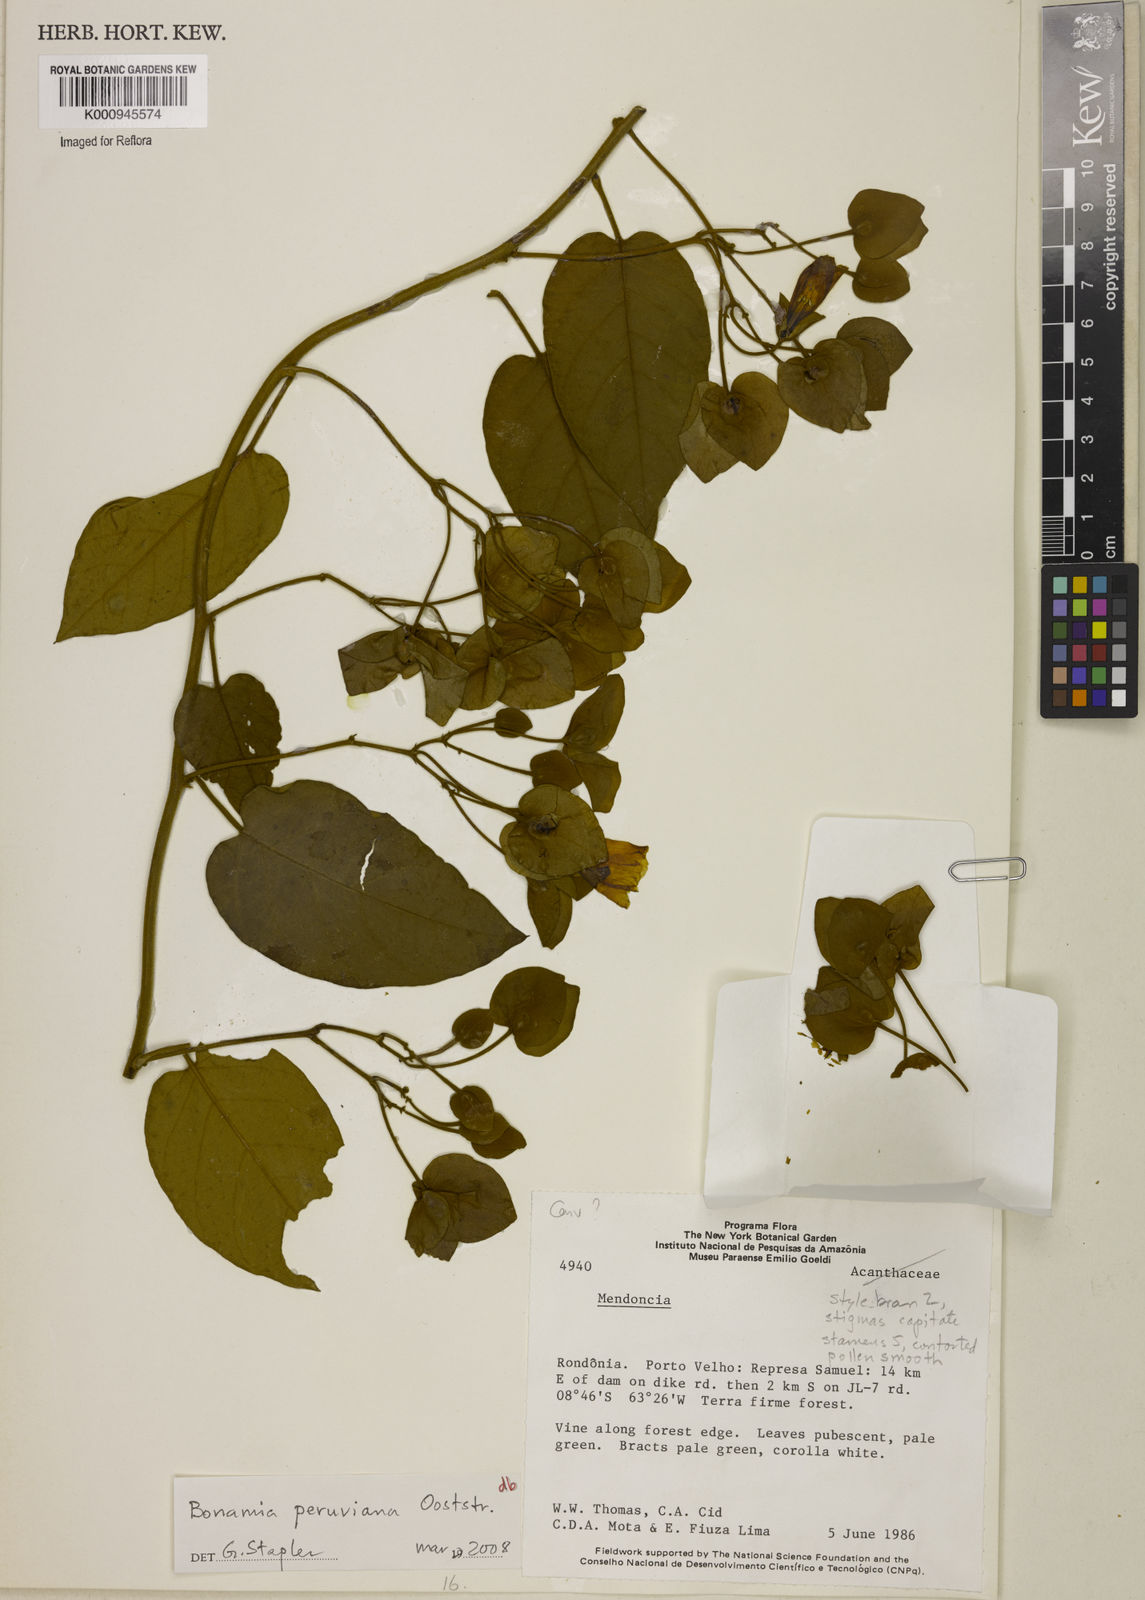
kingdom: Plantae
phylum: Tracheophyta
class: Magnoliopsida
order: Solanales
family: Convolvulaceae
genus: Bonamia
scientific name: Bonamia peruviana
